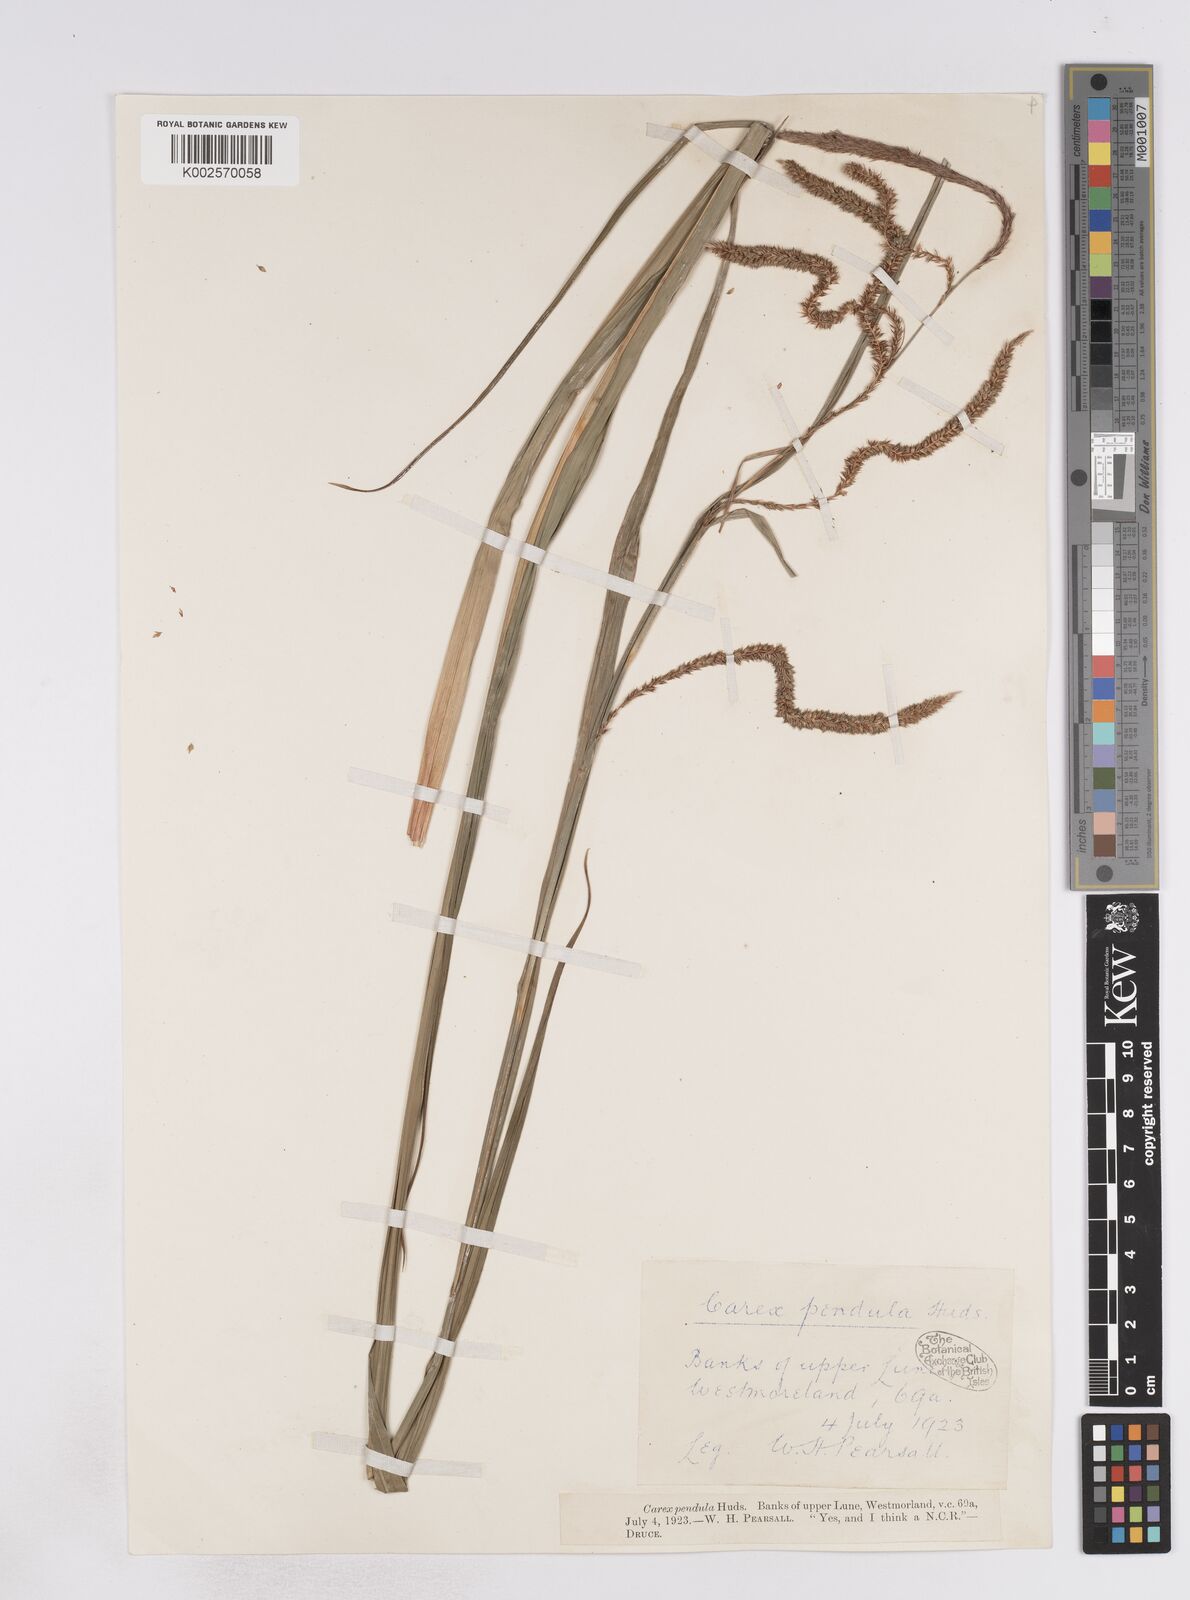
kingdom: Plantae
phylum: Tracheophyta
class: Liliopsida
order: Poales
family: Cyperaceae
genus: Carex
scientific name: Carex pendula
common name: Pendulous sedge
